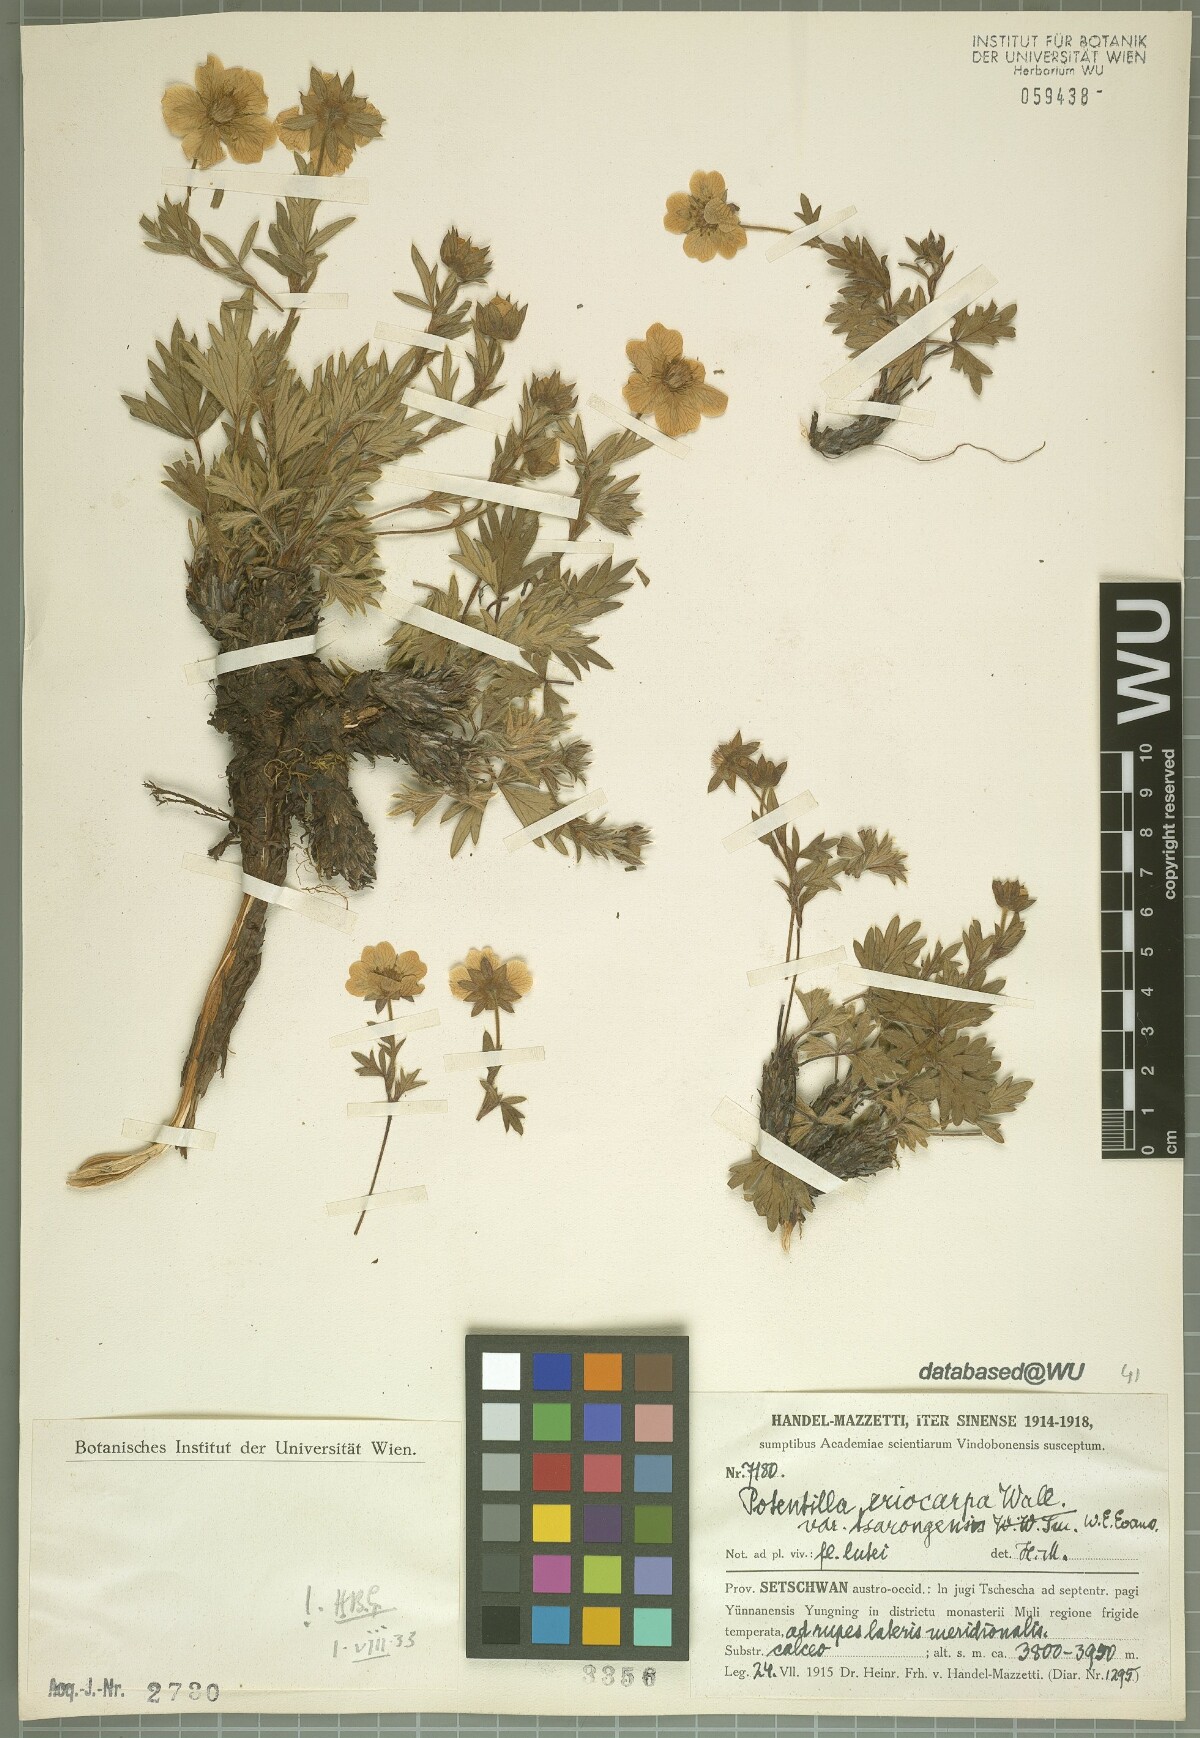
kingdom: Plantae
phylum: Tracheophyta
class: Magnoliopsida
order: Rosales
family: Rosaceae
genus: Potentilla
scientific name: Potentilla eriocarpa
